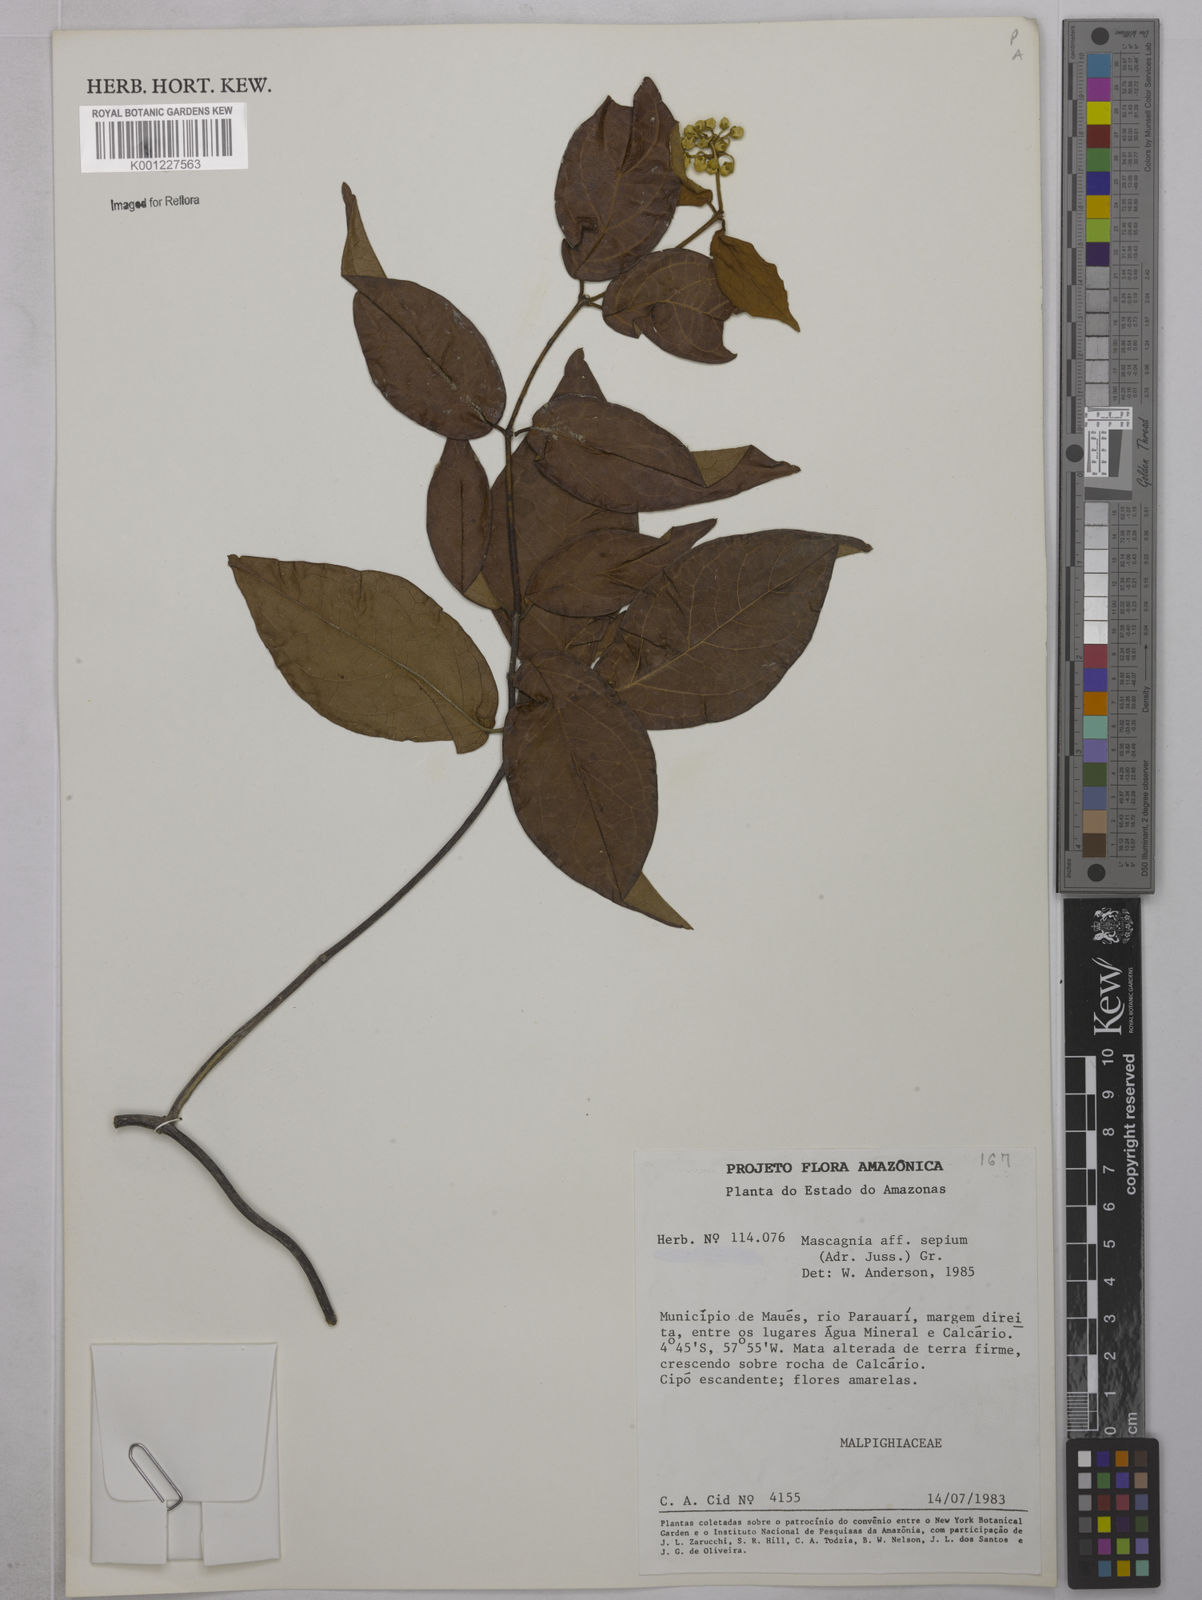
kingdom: Plantae
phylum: Tracheophyta
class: Magnoliopsida
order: Malpighiales
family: Malpighiaceae
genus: Mascagnia
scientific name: Mascagnia sepium
